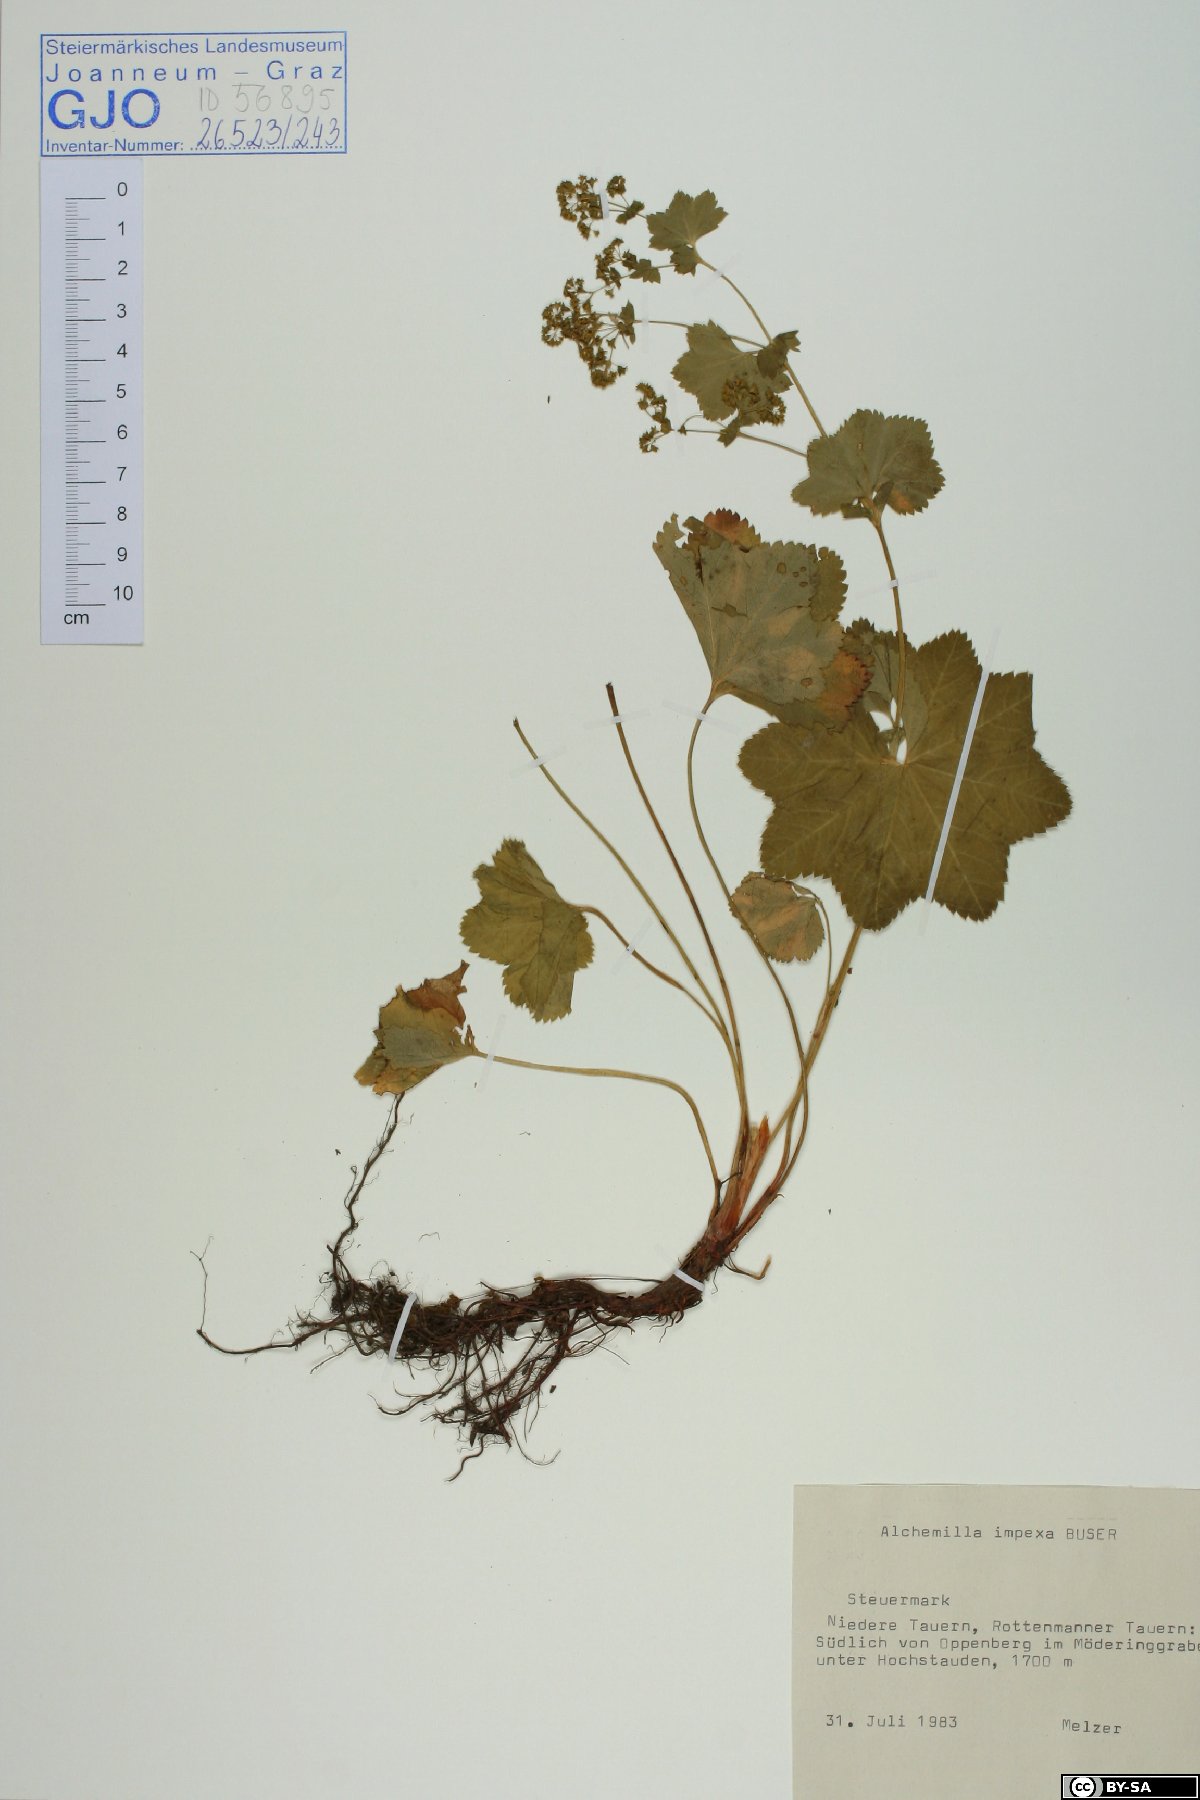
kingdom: Plantae
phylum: Tracheophyta
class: Magnoliopsida
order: Rosales
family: Rosaceae
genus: Alchemilla
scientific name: Alchemilla impexa
